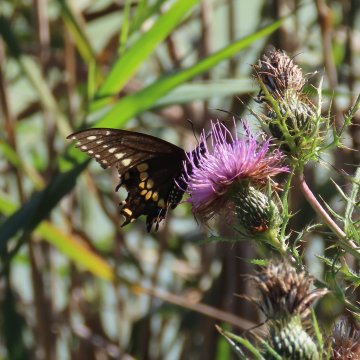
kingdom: Animalia
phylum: Arthropoda
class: Insecta
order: Lepidoptera
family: Papilionidae
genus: Papilio
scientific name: Papilio polyxenes
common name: Black Swallowtail
